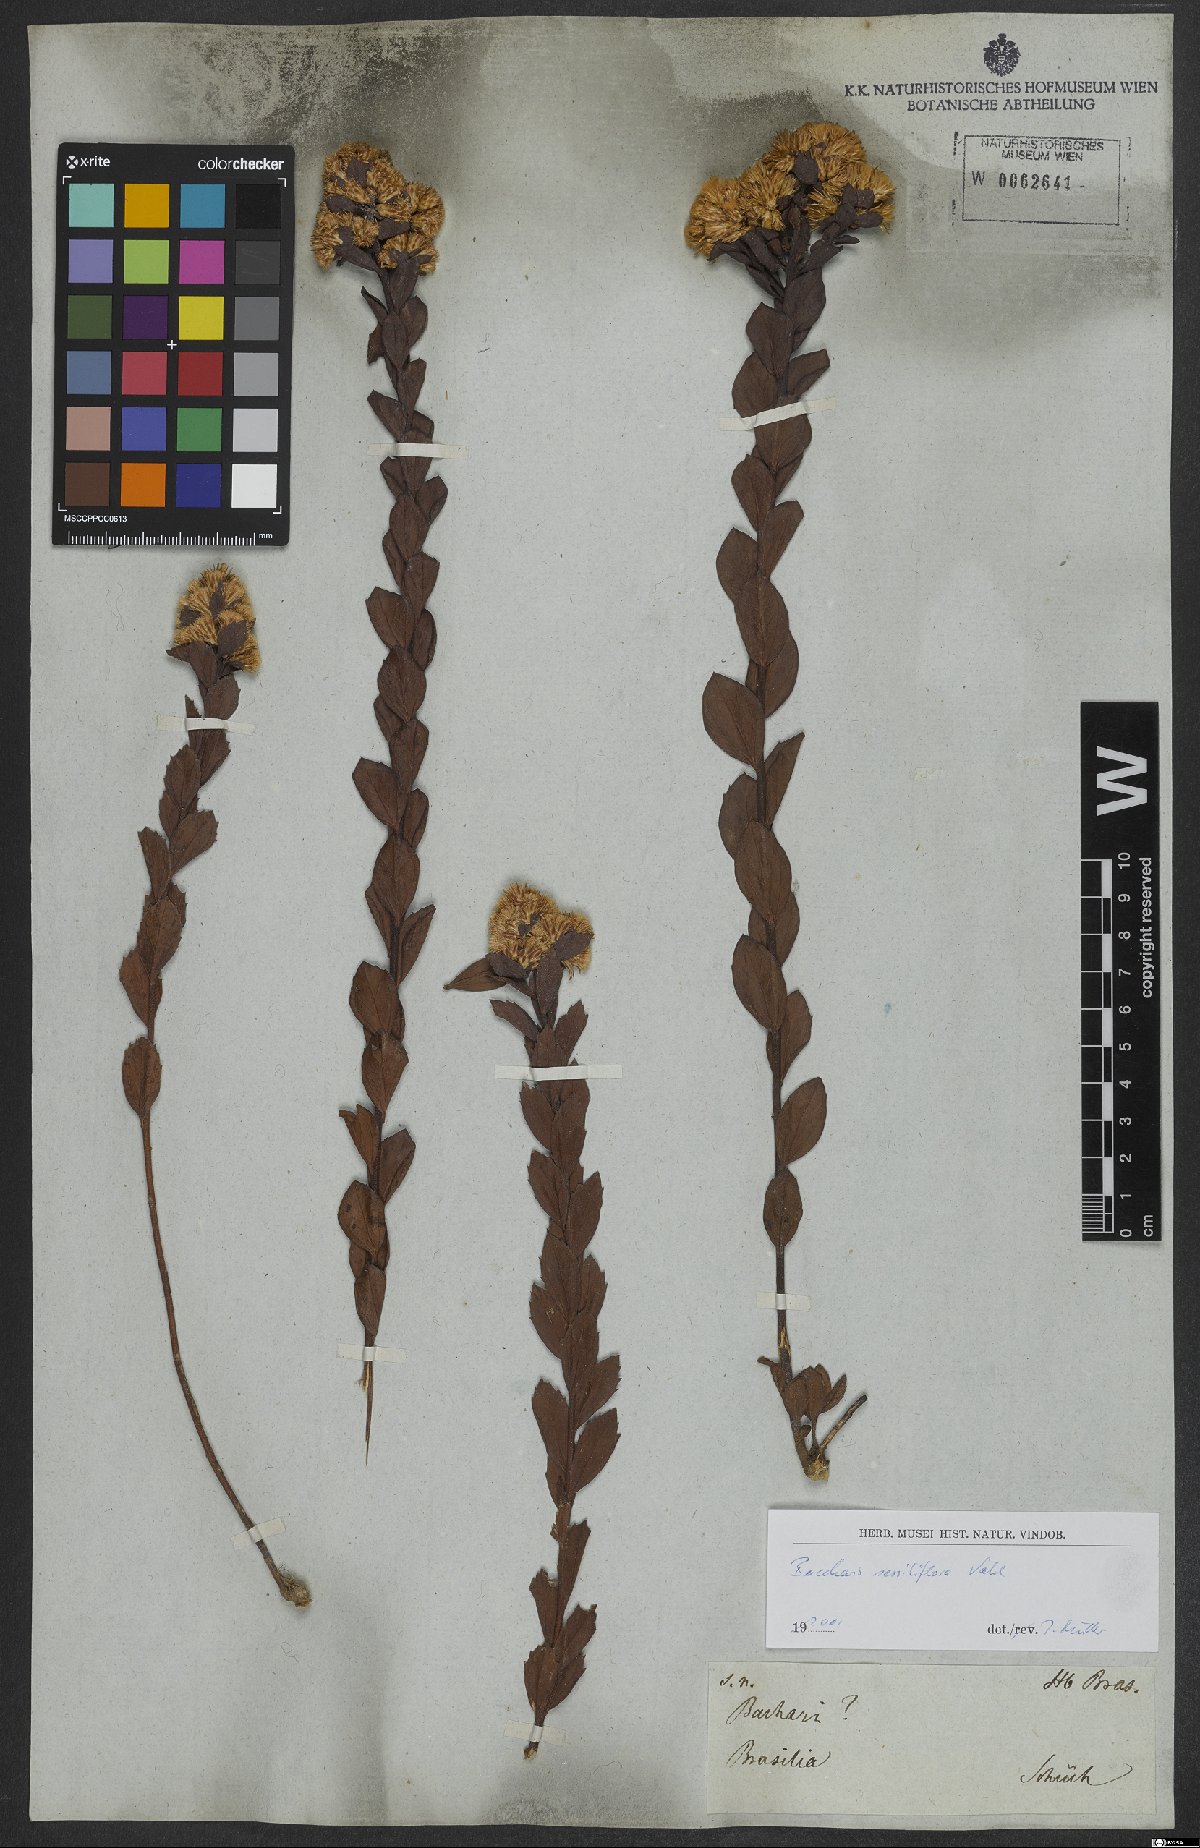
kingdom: Plantae
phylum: Tracheophyta
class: Magnoliopsida
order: Asterales
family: Asteraceae
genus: Baccharis
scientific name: Baccharis sessiliflora
